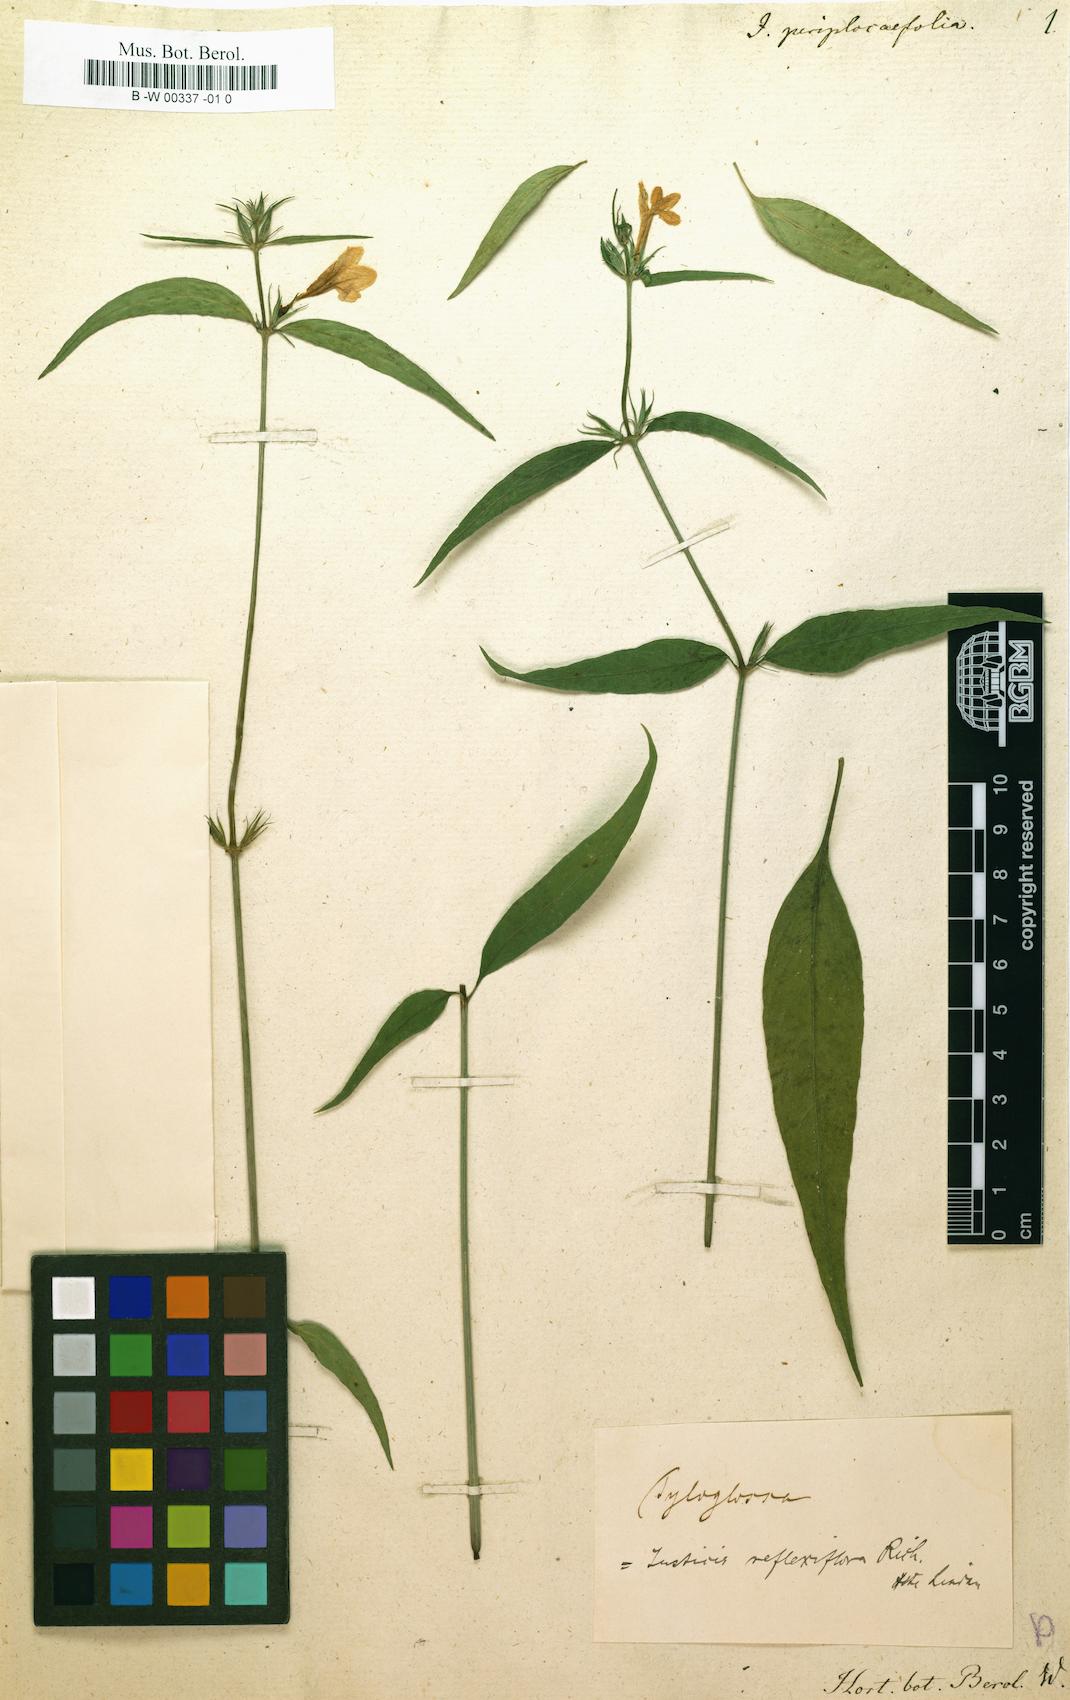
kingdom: Plantae
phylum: Tracheophyta
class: Magnoliopsida
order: Lamiales
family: Acanthaceae
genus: Justicia
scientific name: Justicia periplocifolia
